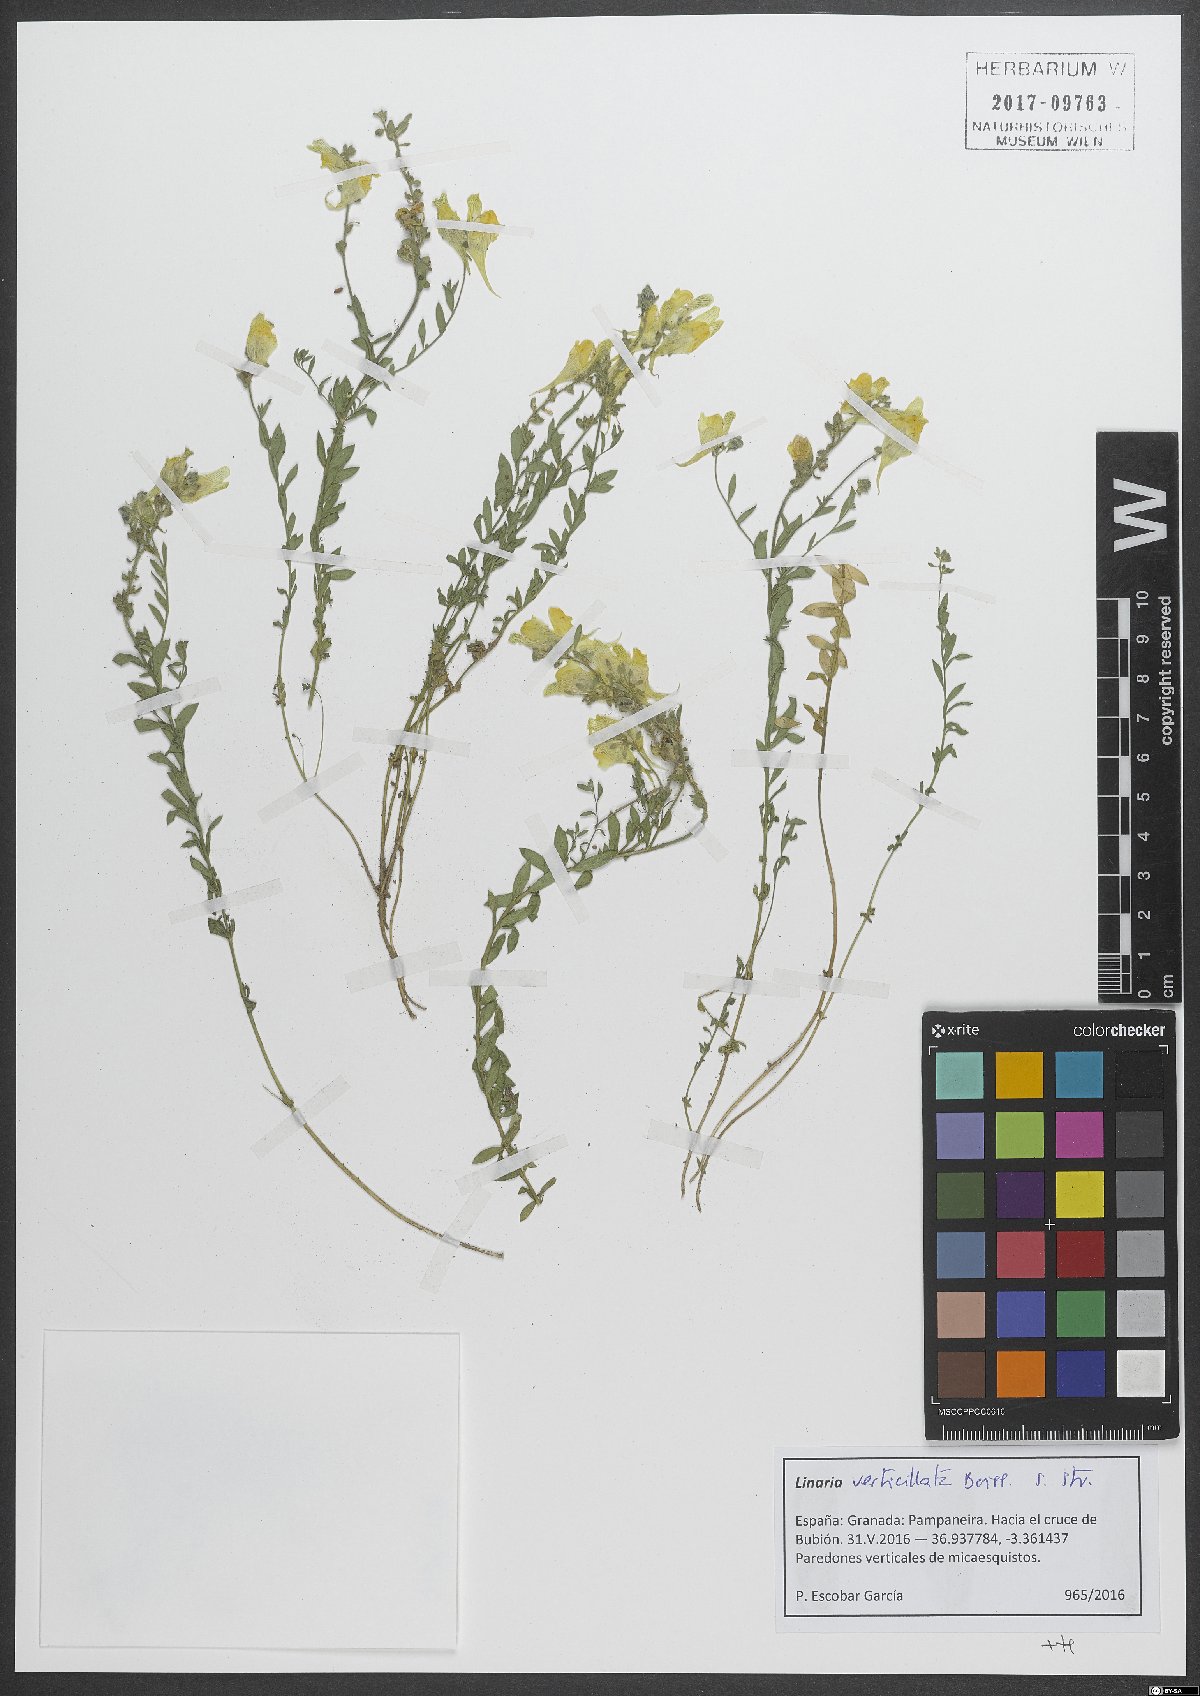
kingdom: Plantae
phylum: Tracheophyta
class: Magnoliopsida
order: Lamiales
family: Plantaginaceae
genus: Linaria
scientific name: Linaria verticillata
